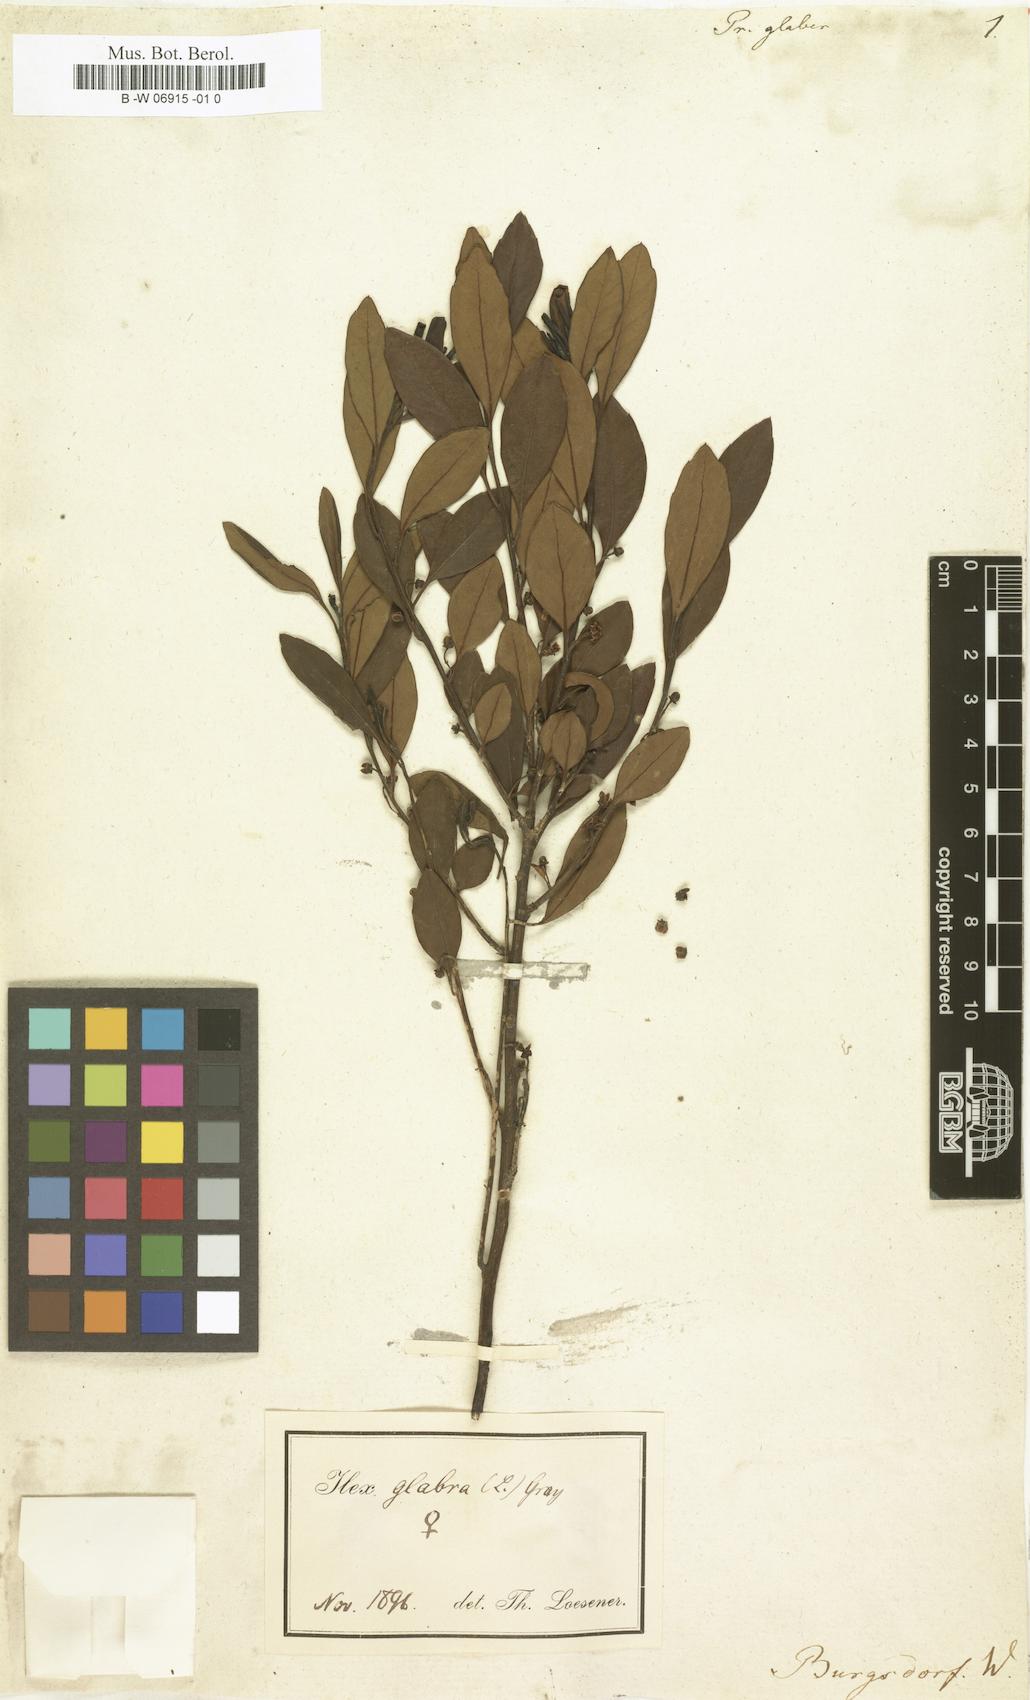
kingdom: Plantae
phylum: Tracheophyta
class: Magnoliopsida
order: Aquifoliales
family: Aquifoliaceae
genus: Ilex
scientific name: Ilex
